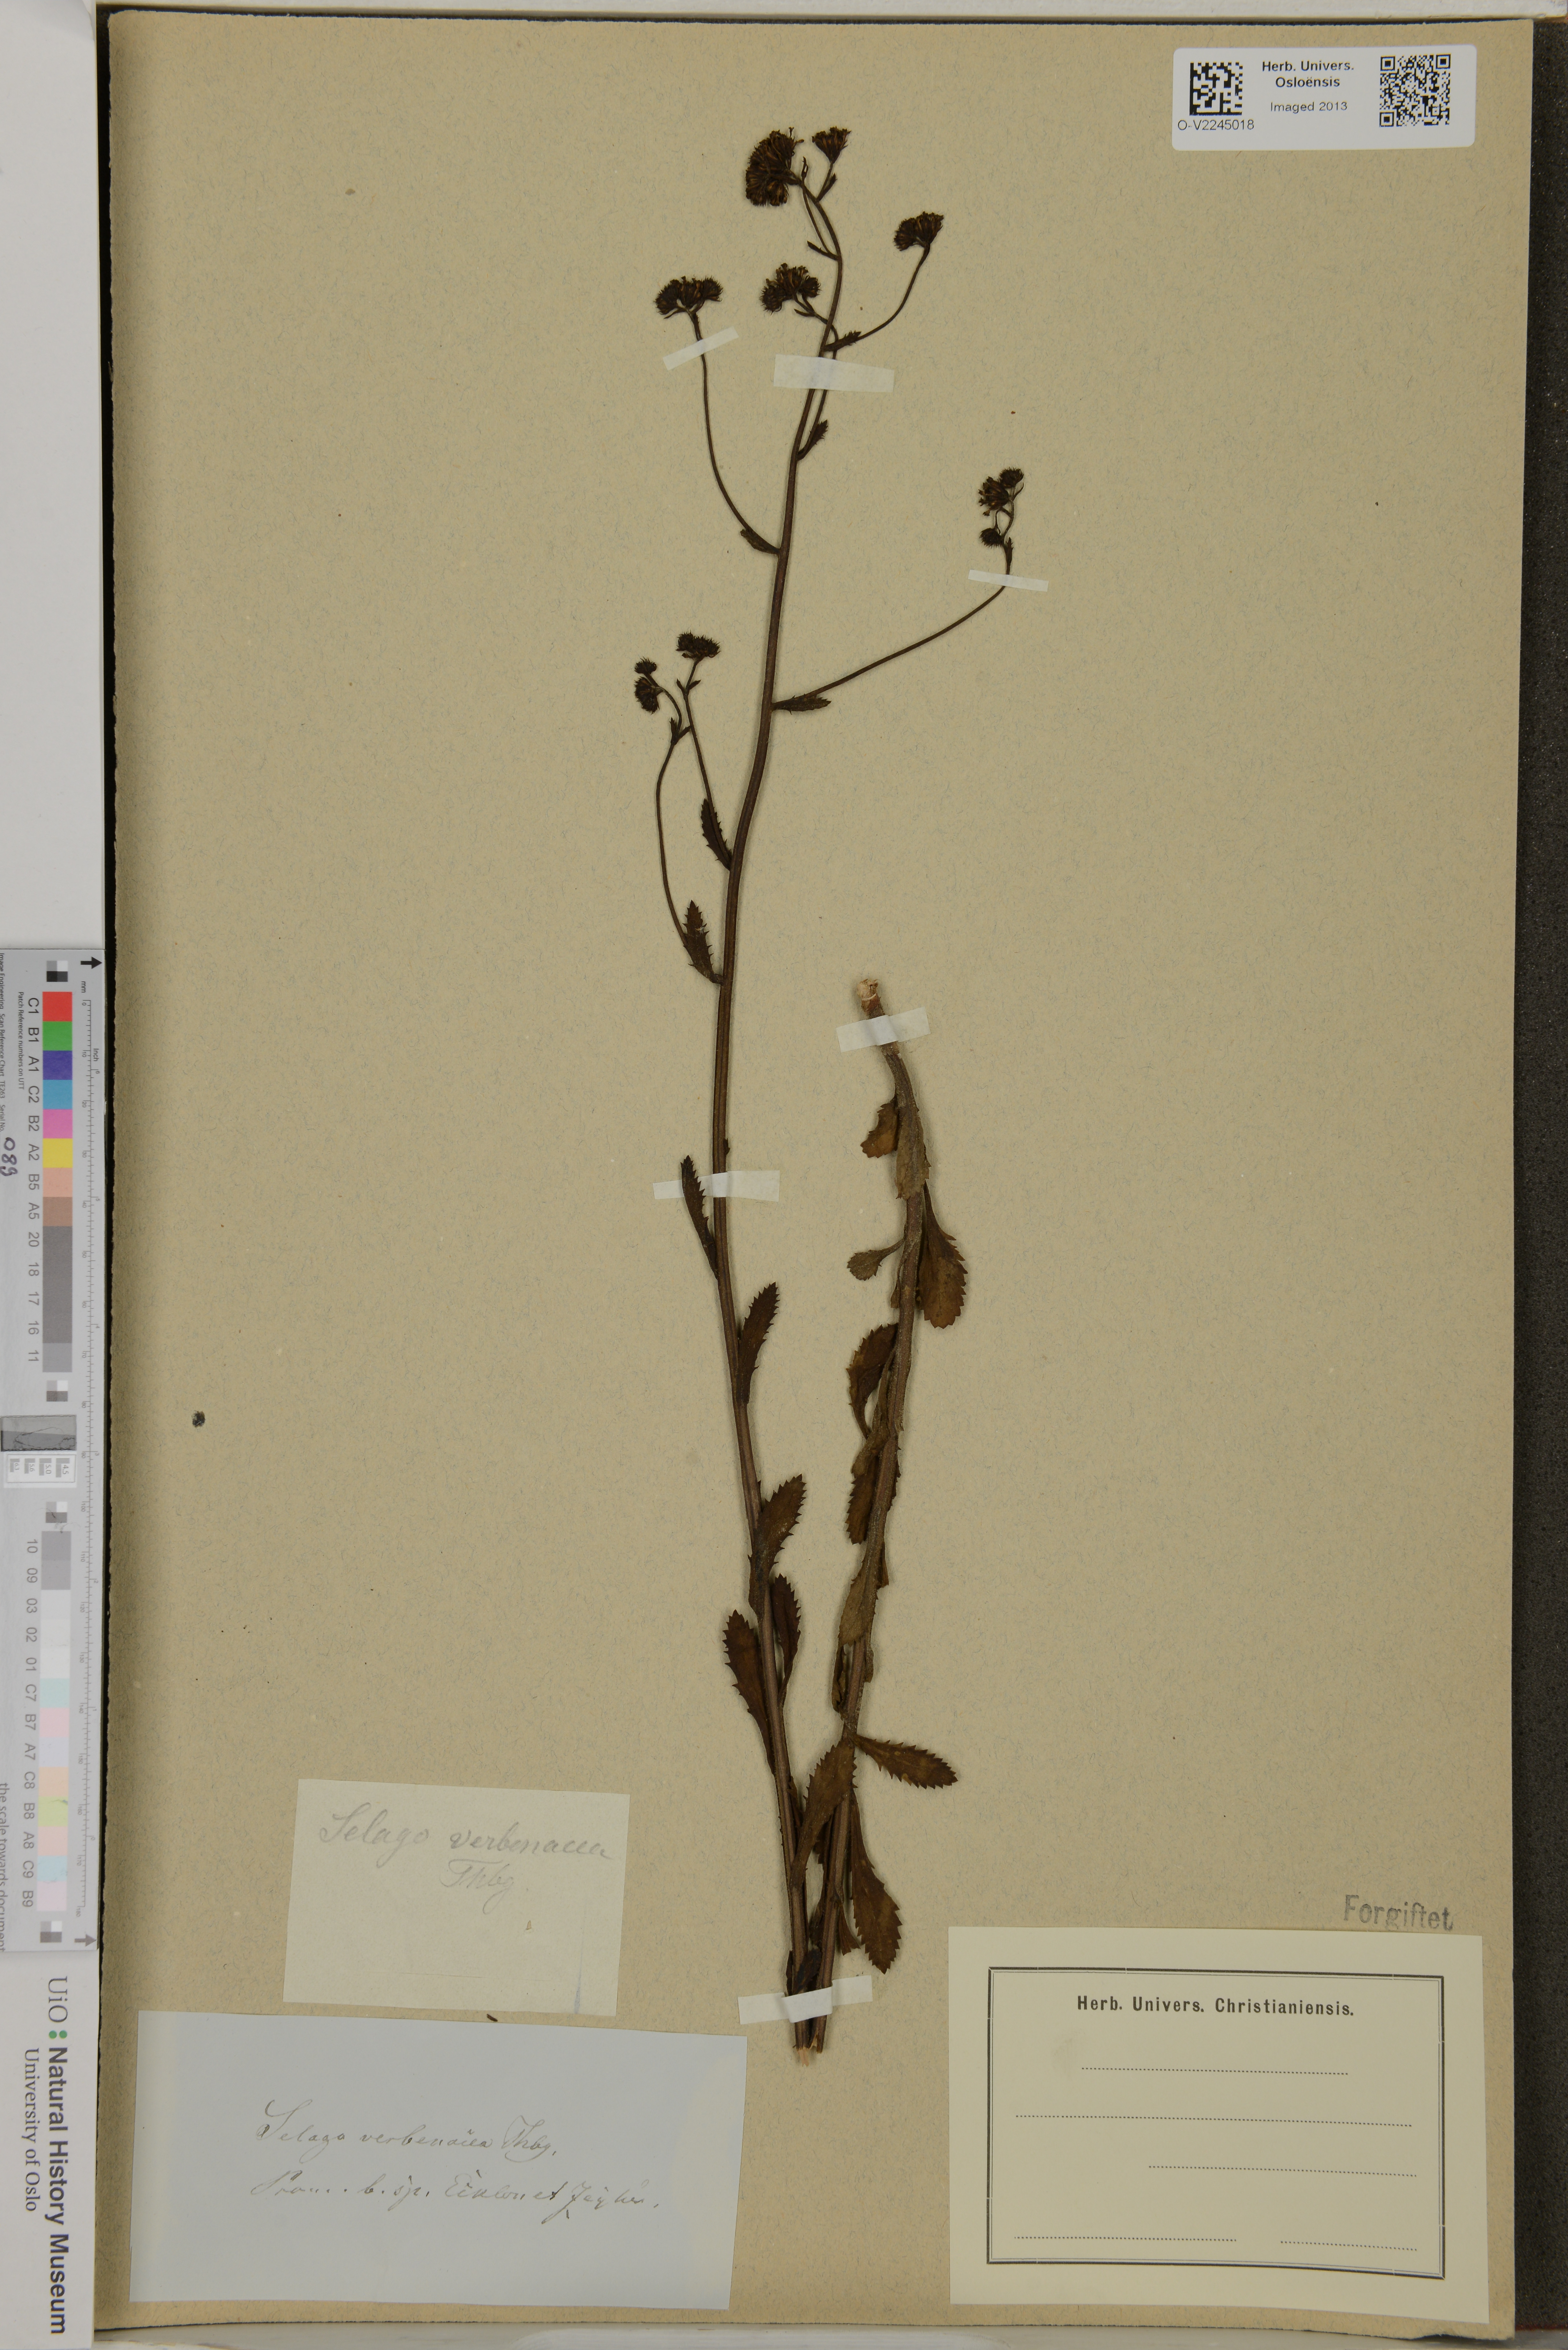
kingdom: Plantae
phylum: Tracheophyta
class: Magnoliopsida
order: Lamiales
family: Scrophulariaceae
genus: Pseudoselago
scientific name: Pseudoselago verbenacea
